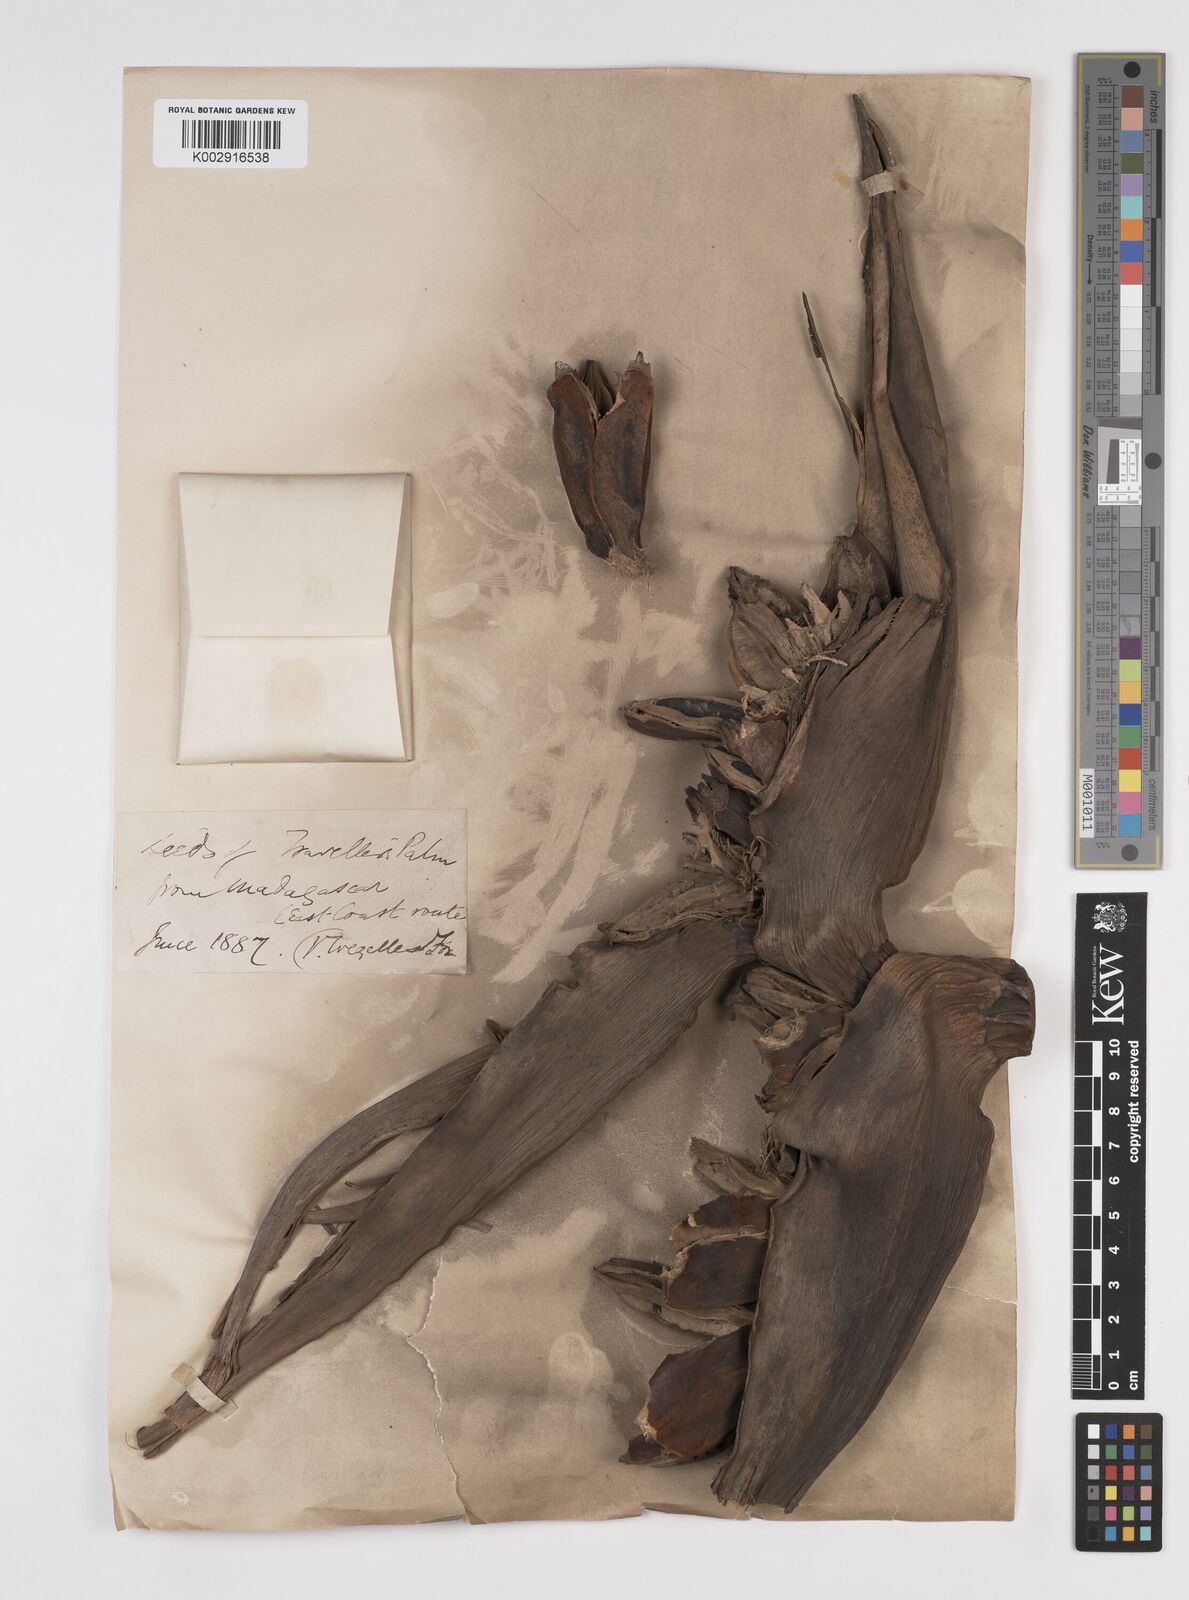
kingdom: Plantae
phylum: Tracheophyta
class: Liliopsida
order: Zingiberales
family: Strelitziaceae
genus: Ravenala
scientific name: Ravenala madagascariensis
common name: Traveler's-palm
